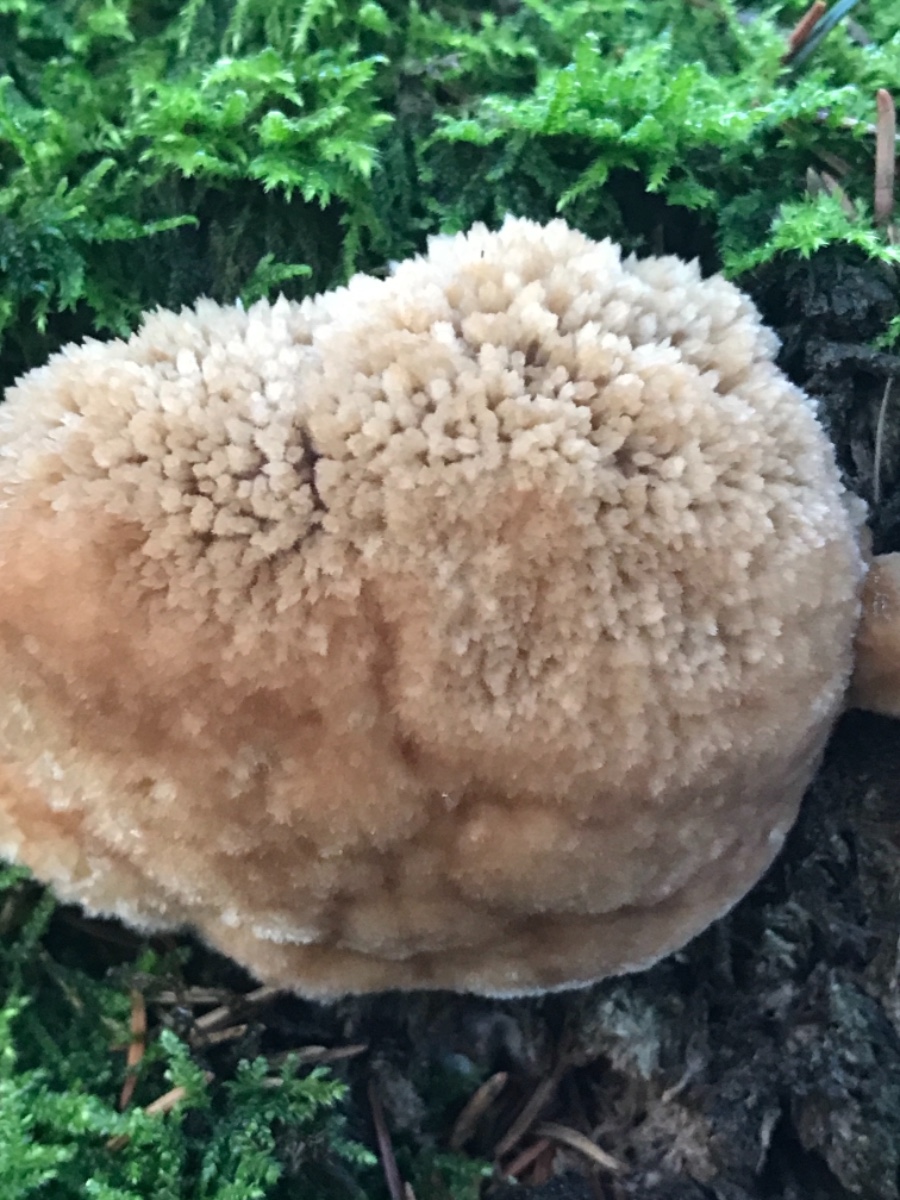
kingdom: Fungi
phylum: Basidiomycota
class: Agaricomycetes
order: Polyporales
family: Dacryobolaceae
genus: Postia
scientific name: Postia ptychogaster
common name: støvende kødporesvamp
